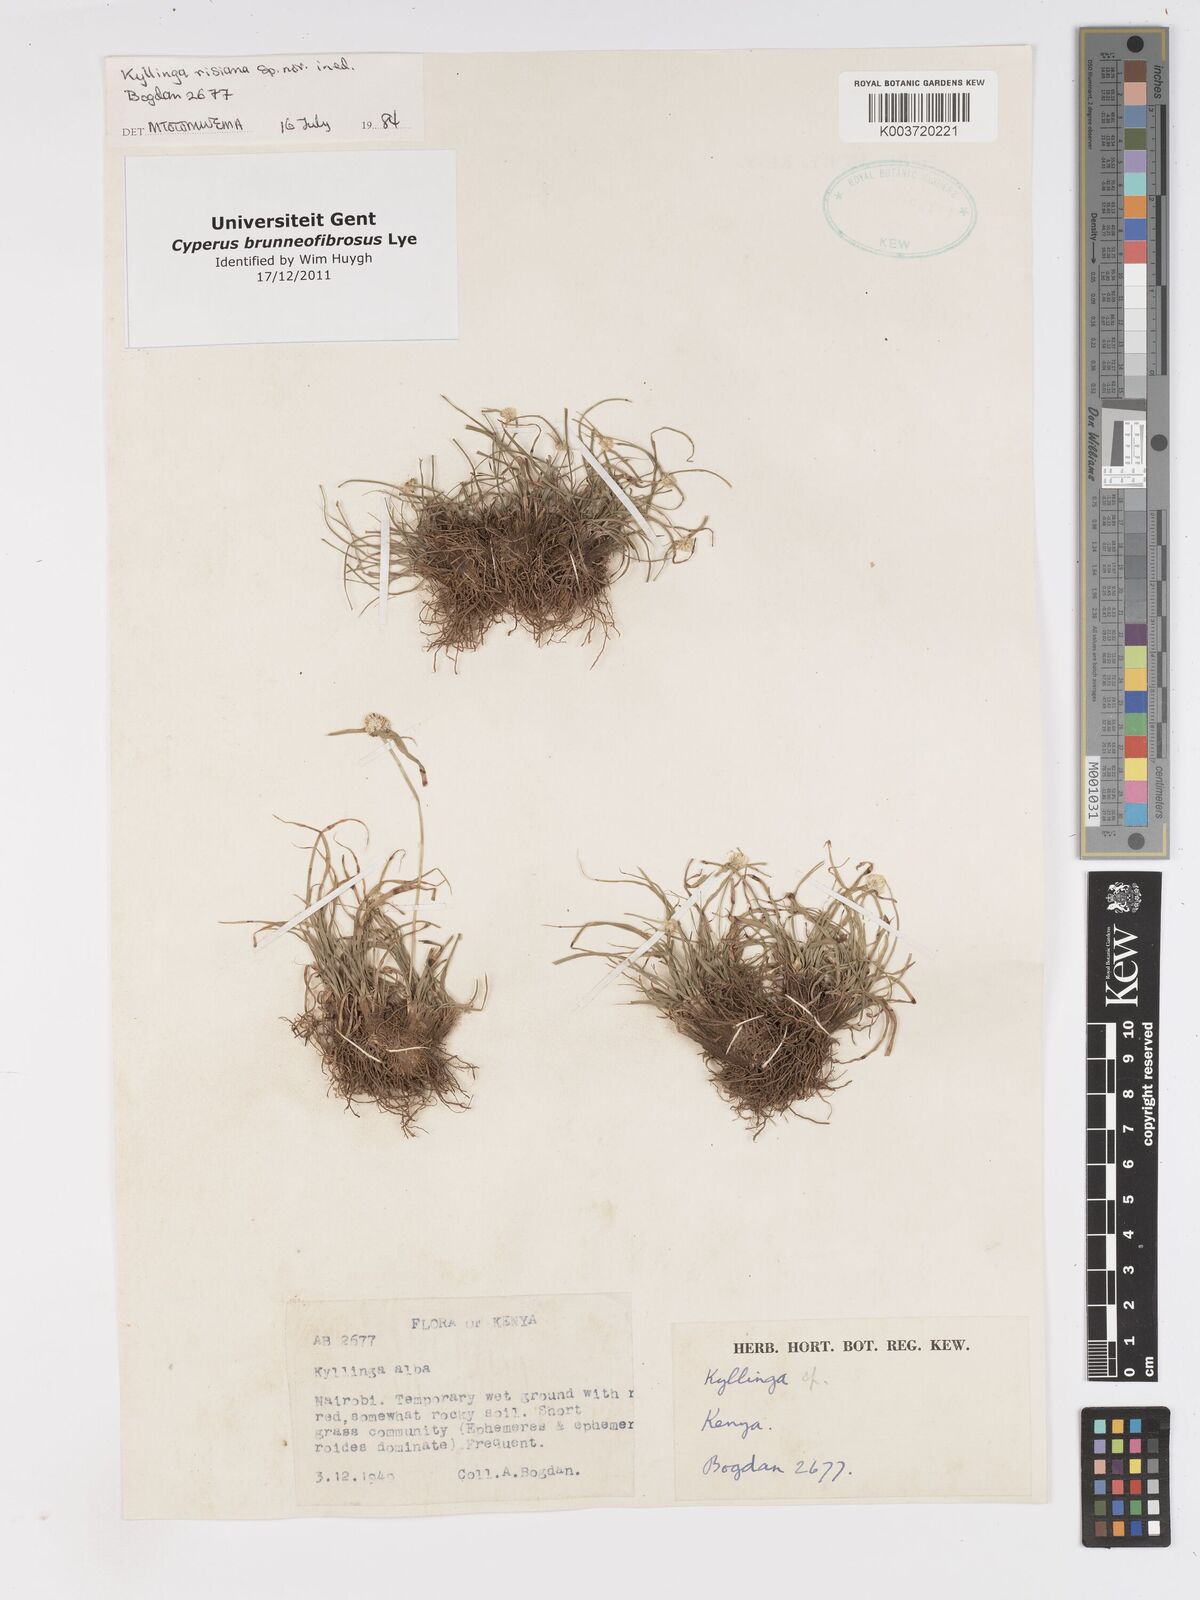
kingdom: Plantae
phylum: Tracheophyta
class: Liliopsida
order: Poales
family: Cyperaceae
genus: Cyperus
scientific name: Cyperus brunneofibrosus
